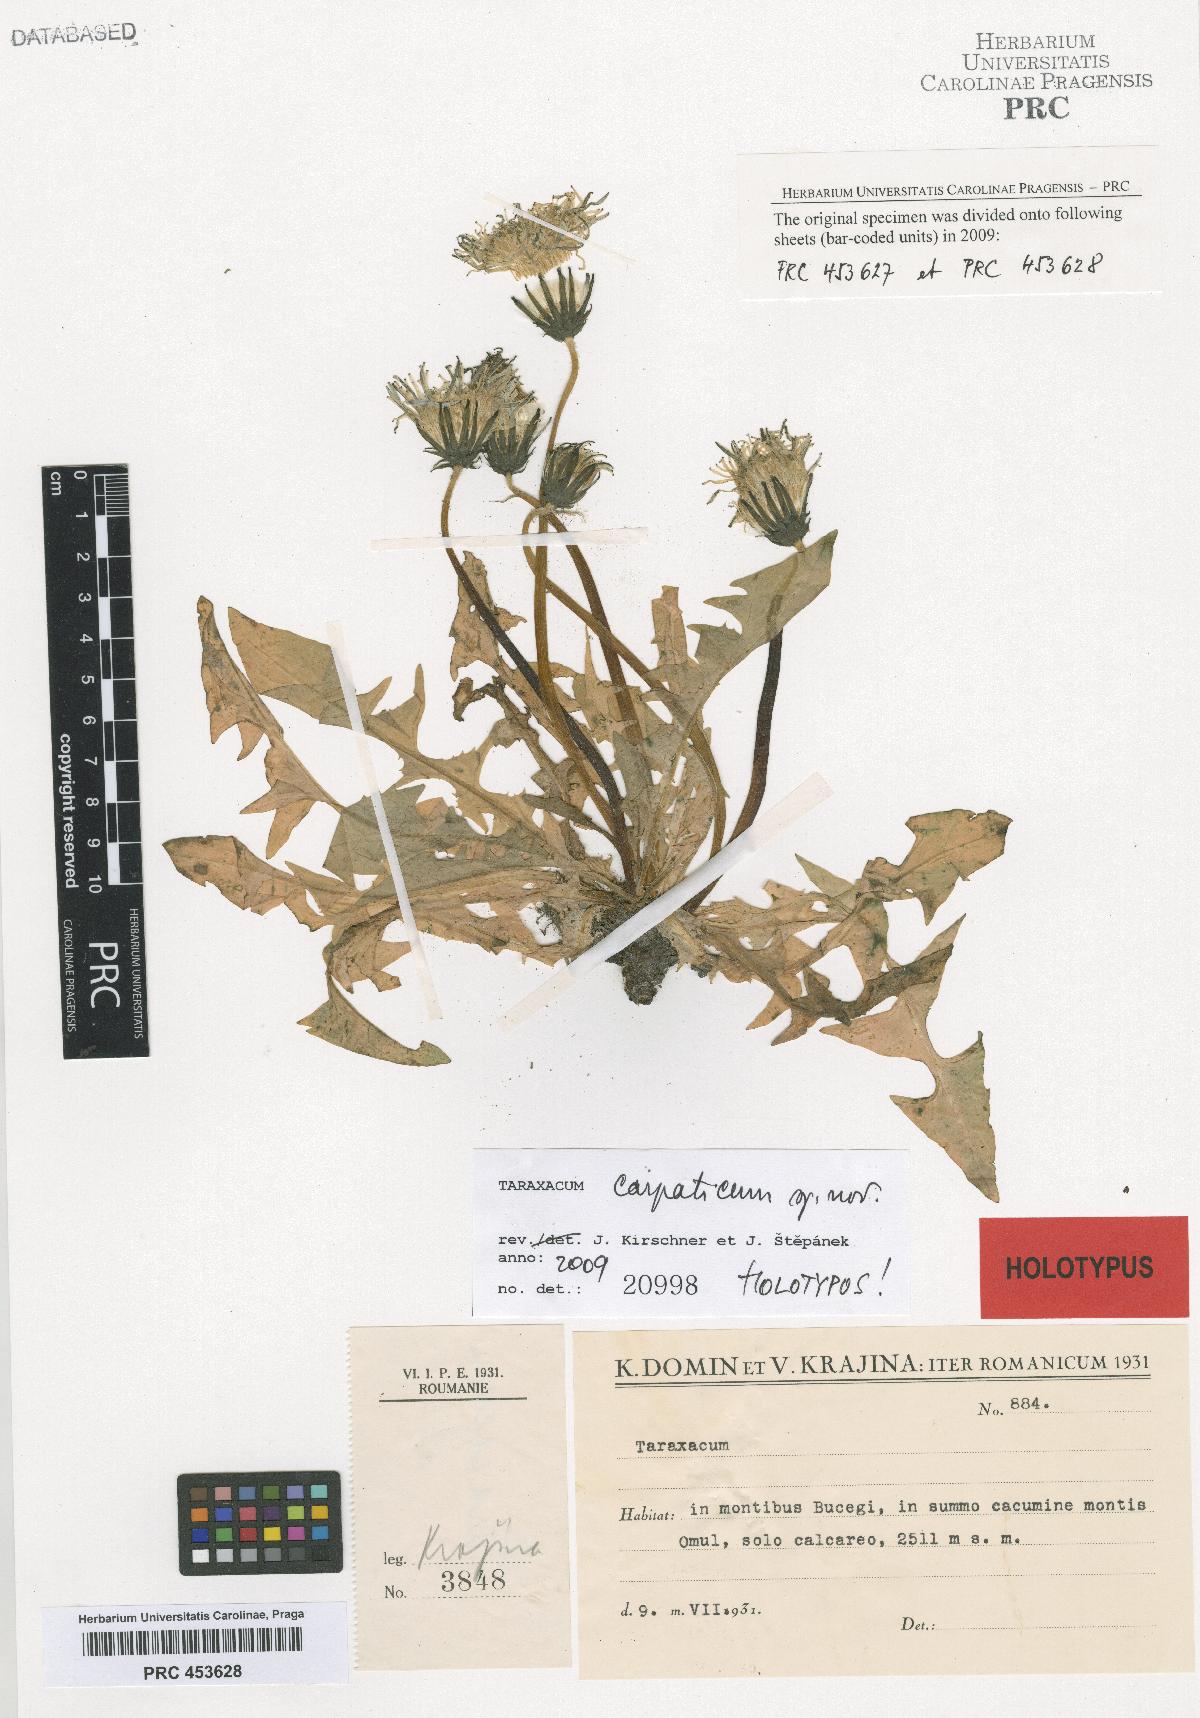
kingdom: Plantae
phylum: Tracheophyta
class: Magnoliopsida
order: Asterales
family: Asteraceae
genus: Taraxacum
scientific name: Taraxacum carpaticum
